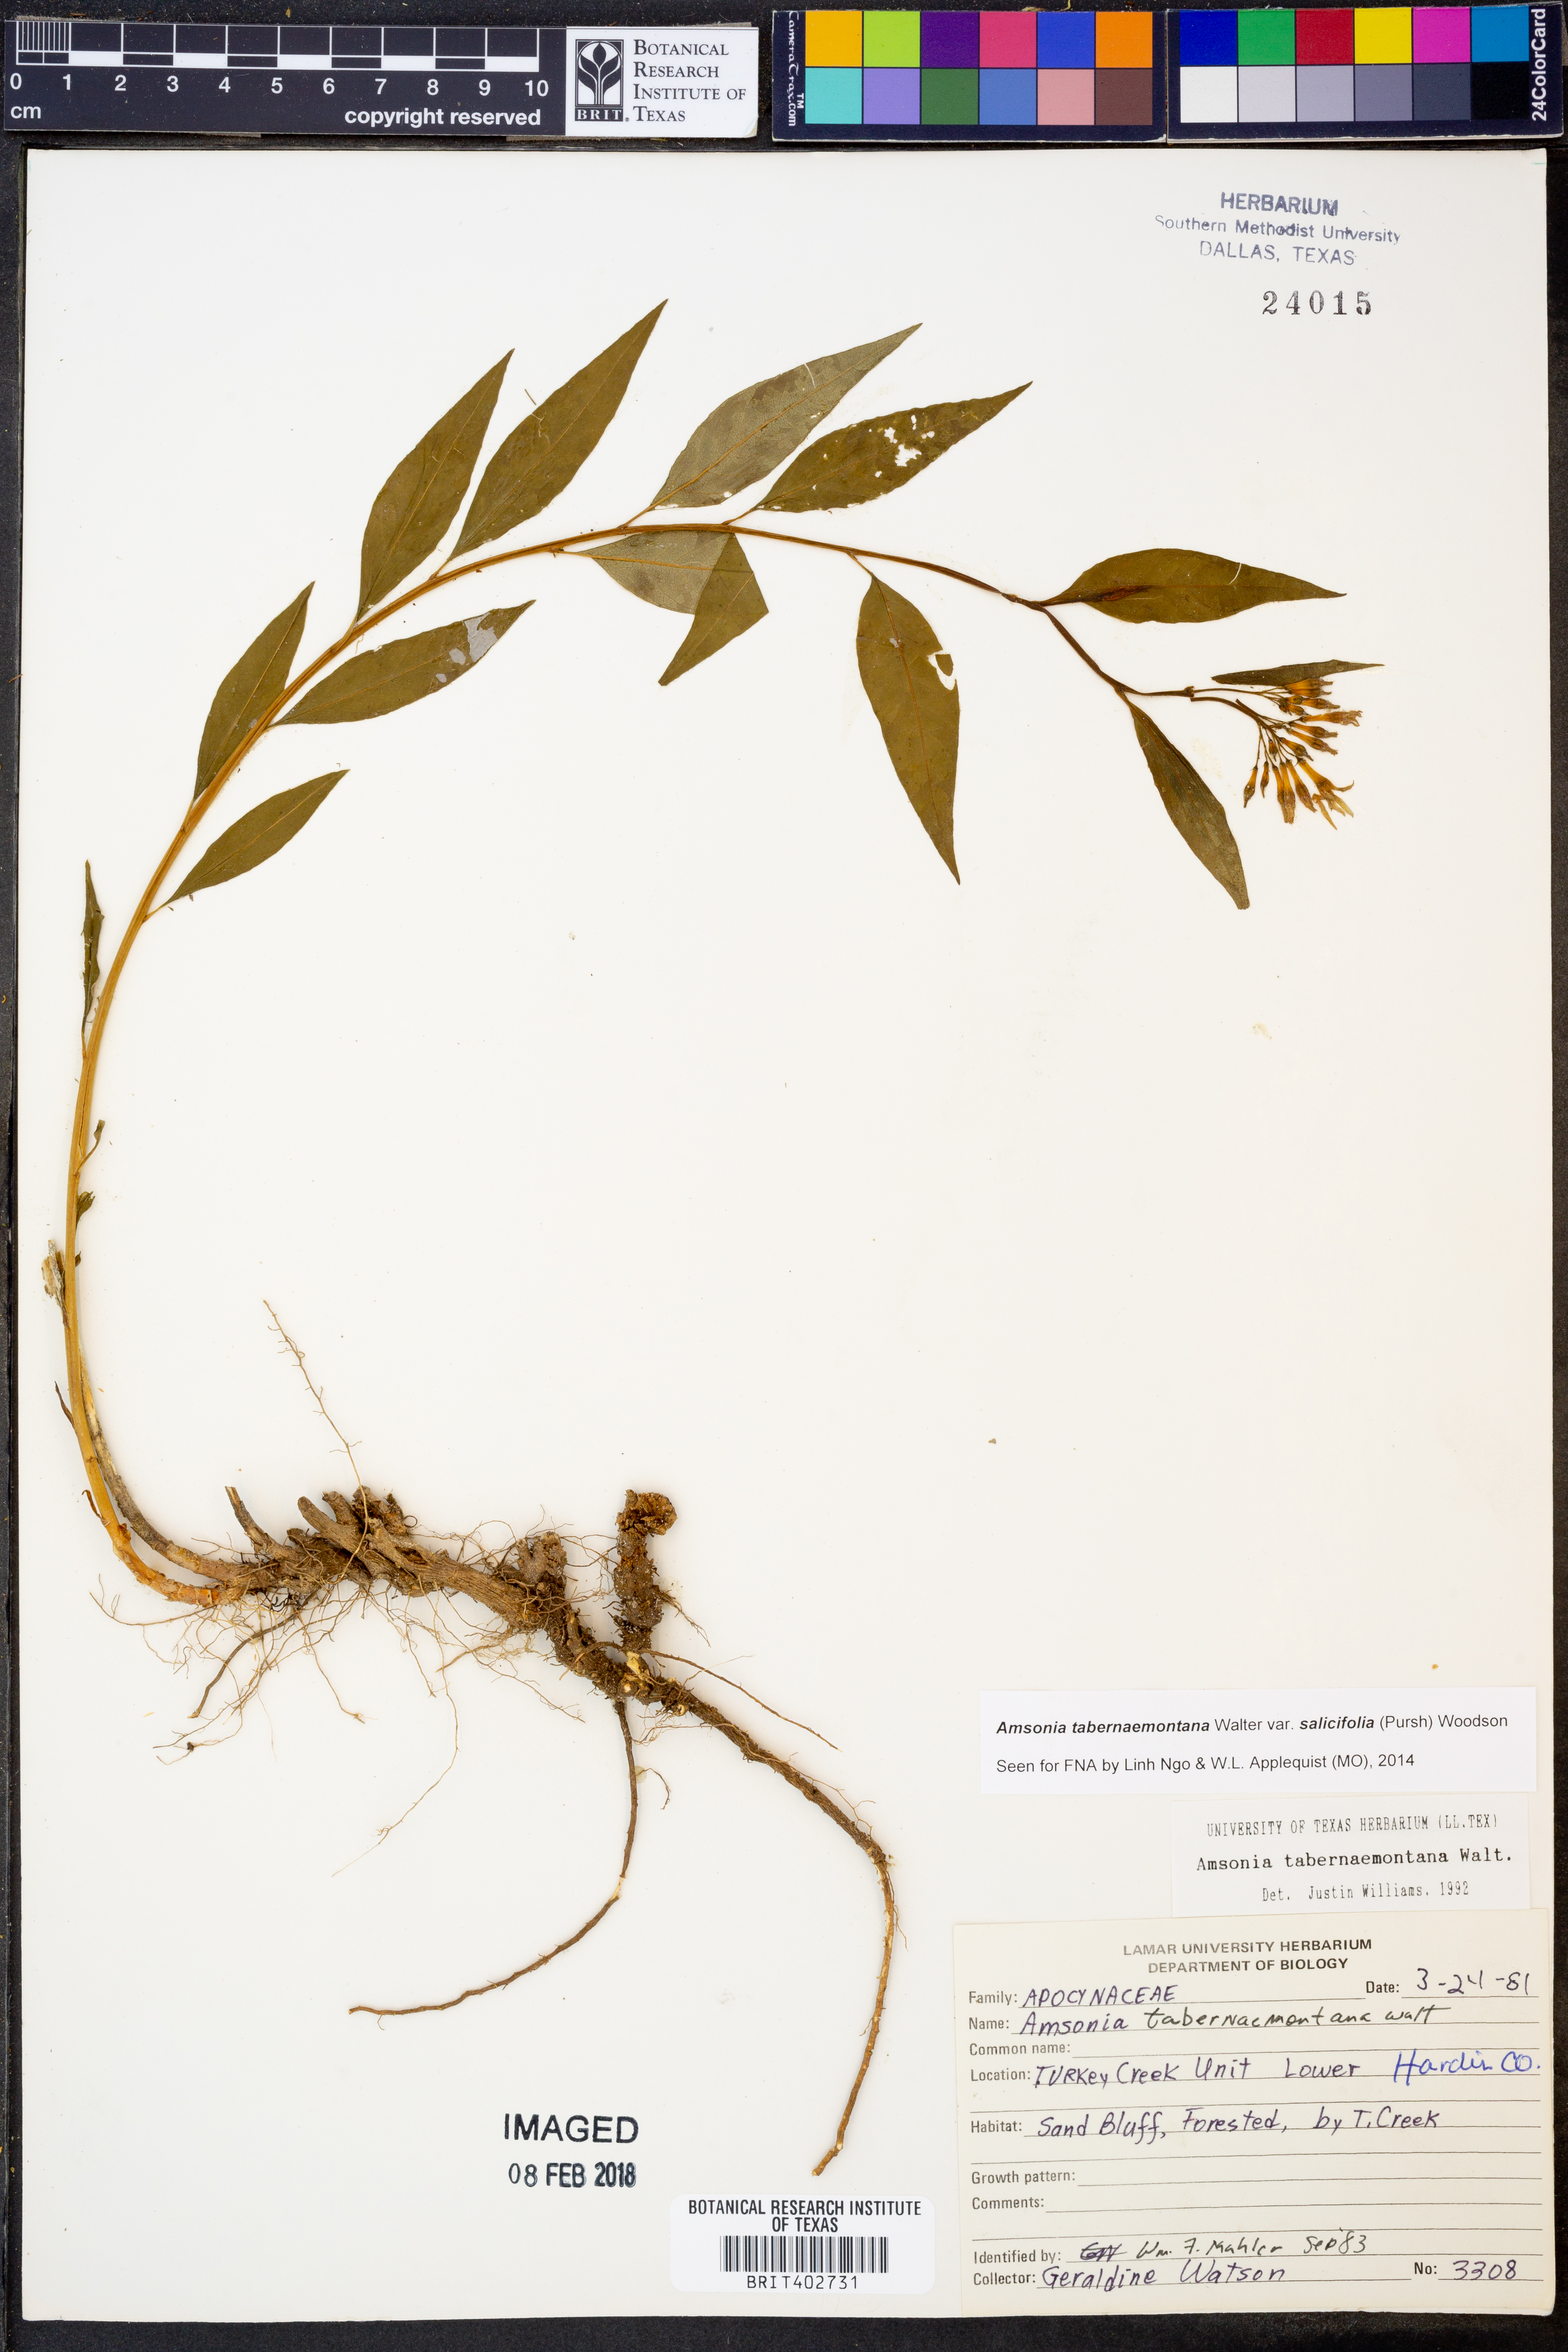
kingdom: Plantae
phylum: Tracheophyta
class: Magnoliopsida
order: Gentianales
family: Apocynaceae
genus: Amsonia
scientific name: Amsonia tabernaemontana
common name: Texas-star
